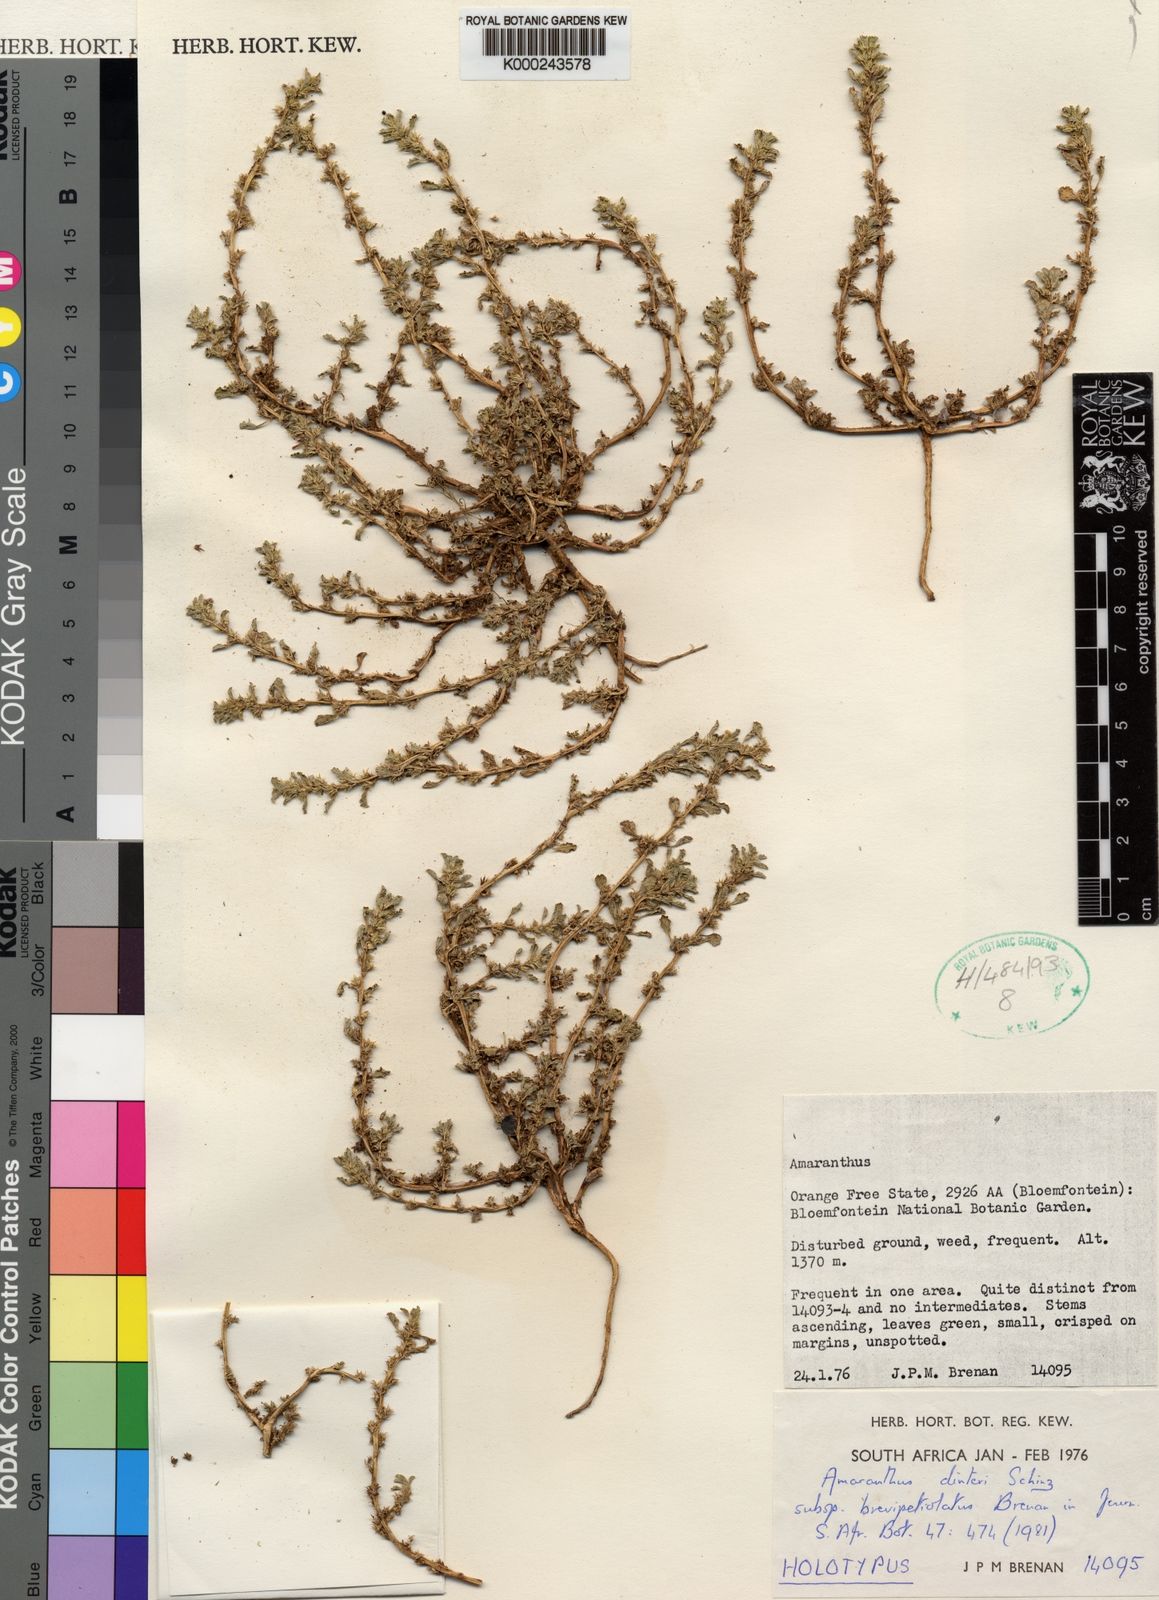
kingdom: Plantae
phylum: Tracheophyta
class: Magnoliopsida
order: Caryophyllales
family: Amaranthaceae
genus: Amaranthus
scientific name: Amaranthus dinteri
